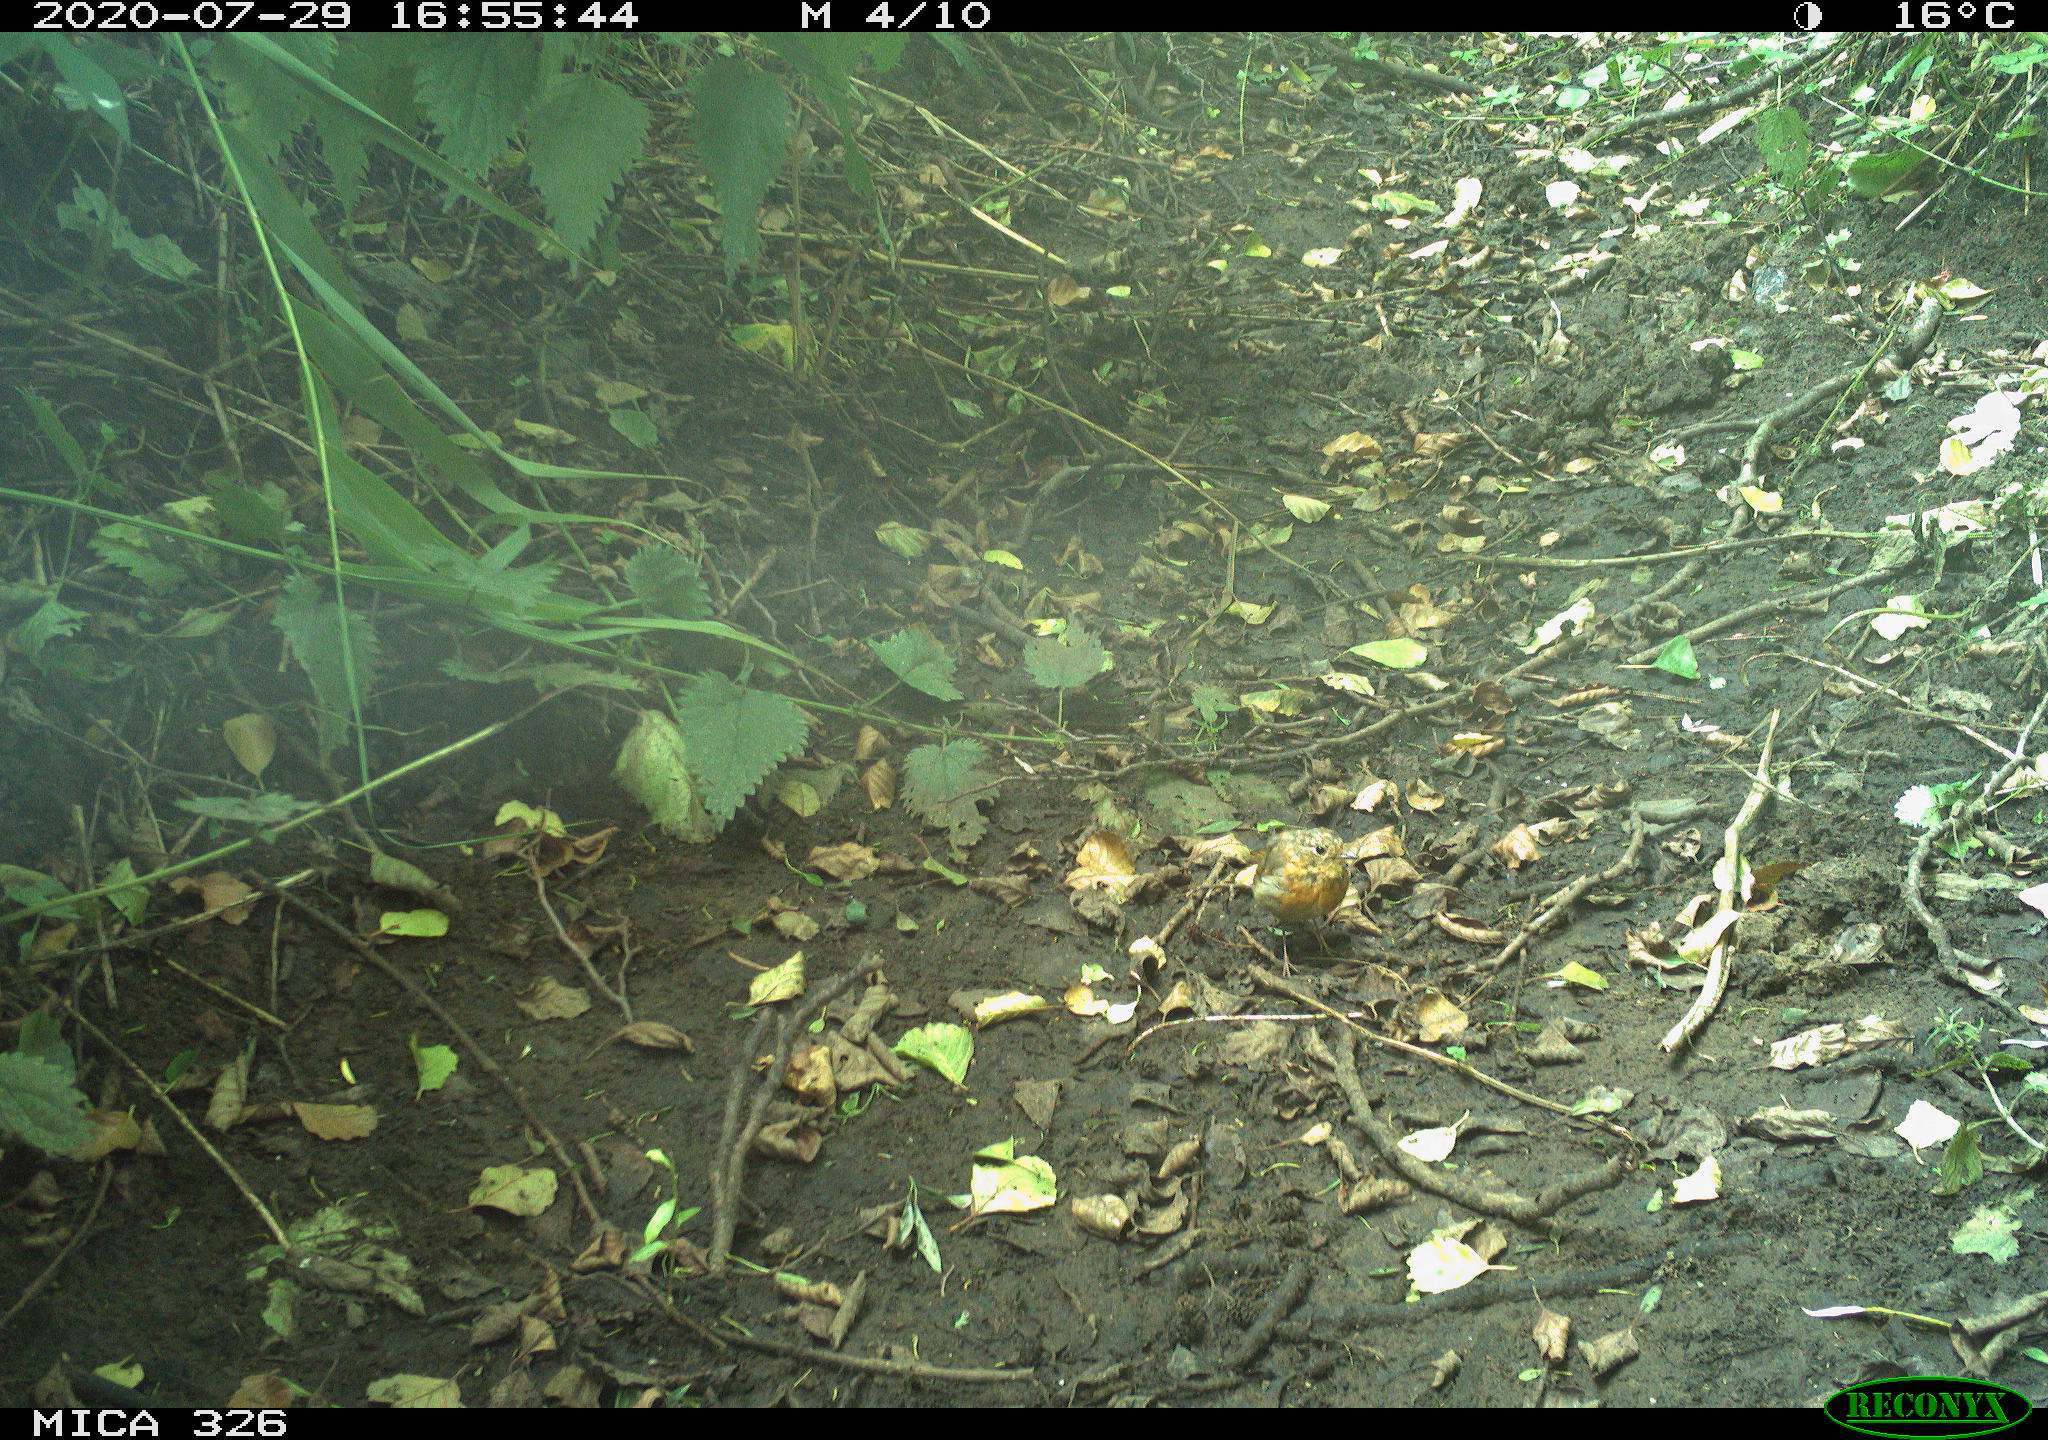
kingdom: Animalia
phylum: Chordata
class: Aves
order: Passeriformes
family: Muscicapidae
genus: Erithacus
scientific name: Erithacus rubecula
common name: European robin
